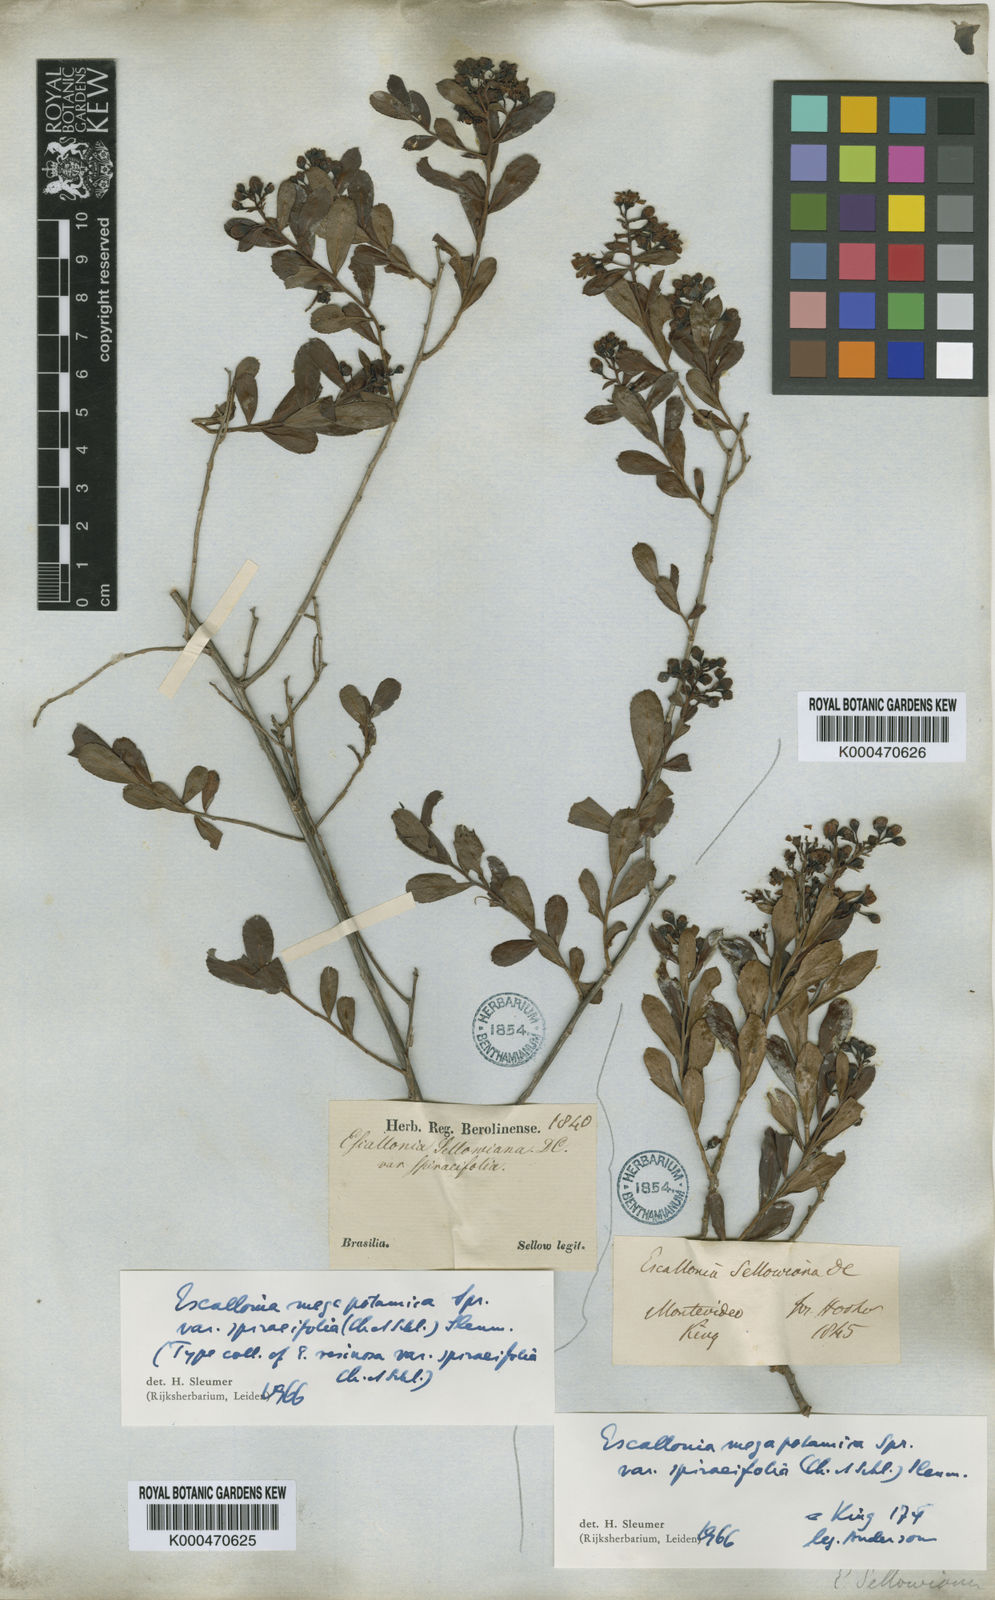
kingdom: Plantae
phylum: Tracheophyta
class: Magnoliopsida
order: Escalloniales
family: Escalloniaceae
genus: Escallonia
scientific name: Escallonia megapotamica
